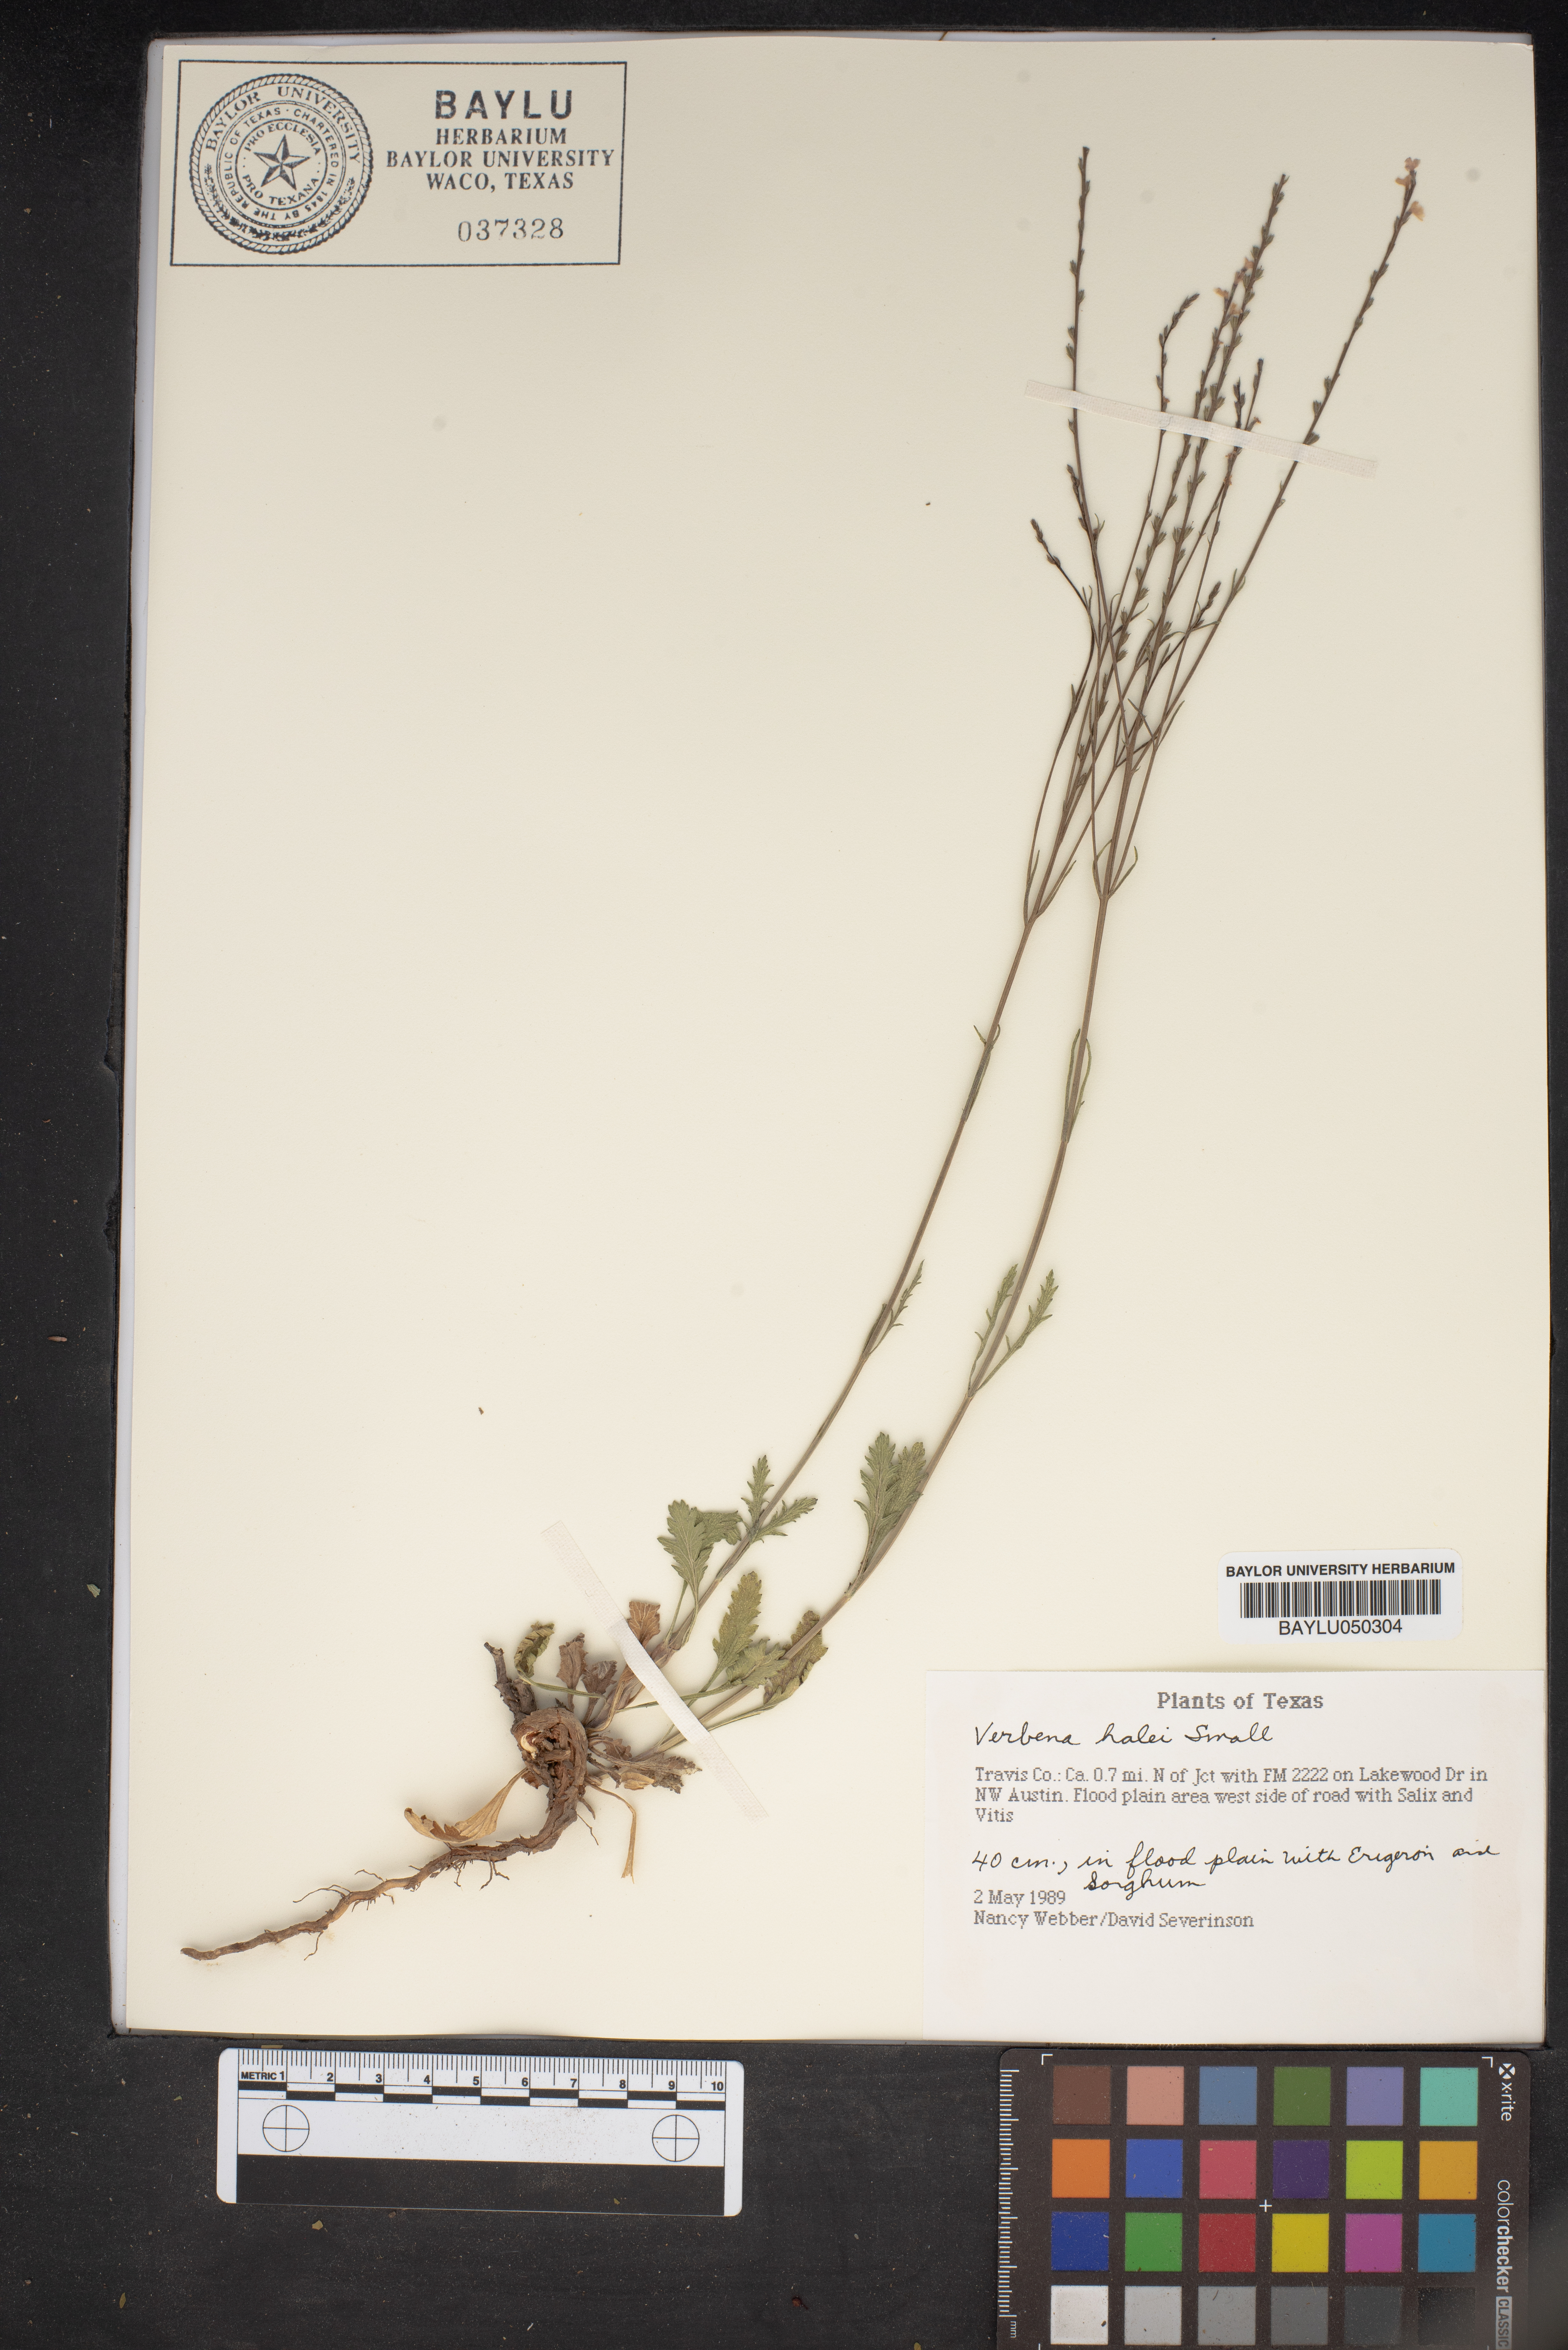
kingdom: Plantae
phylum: Tracheophyta
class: Magnoliopsida
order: Lamiales
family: Verbenaceae
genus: Verbena
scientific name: Verbena halei
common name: Texas vervain
